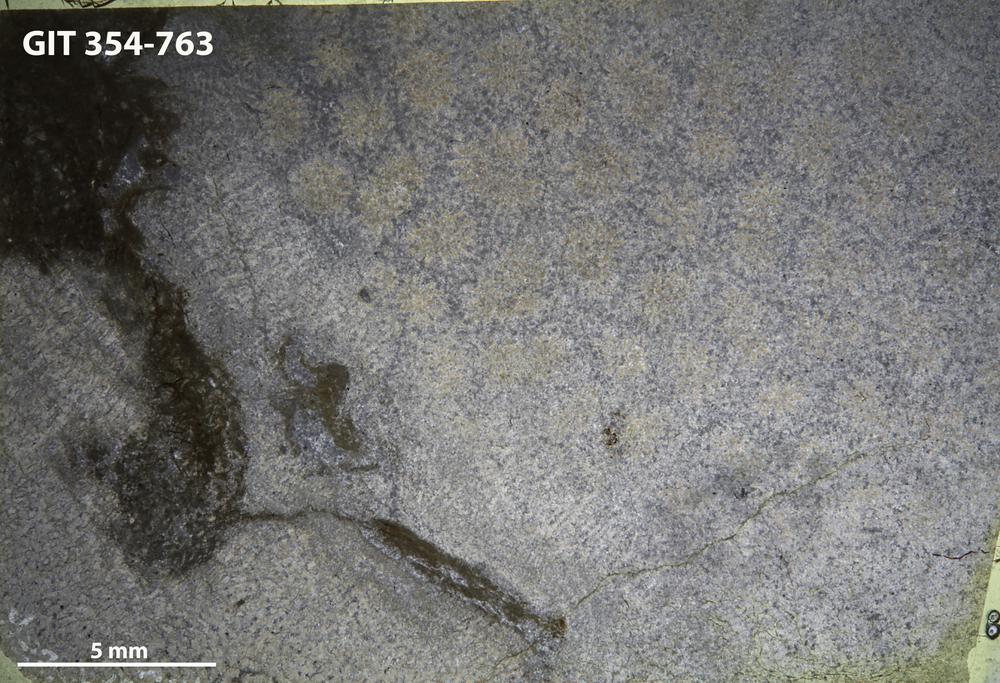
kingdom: Animalia
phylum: Porifera
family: Pseudolabechiidae
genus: Pseudolabechia
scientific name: Pseudolabechia
